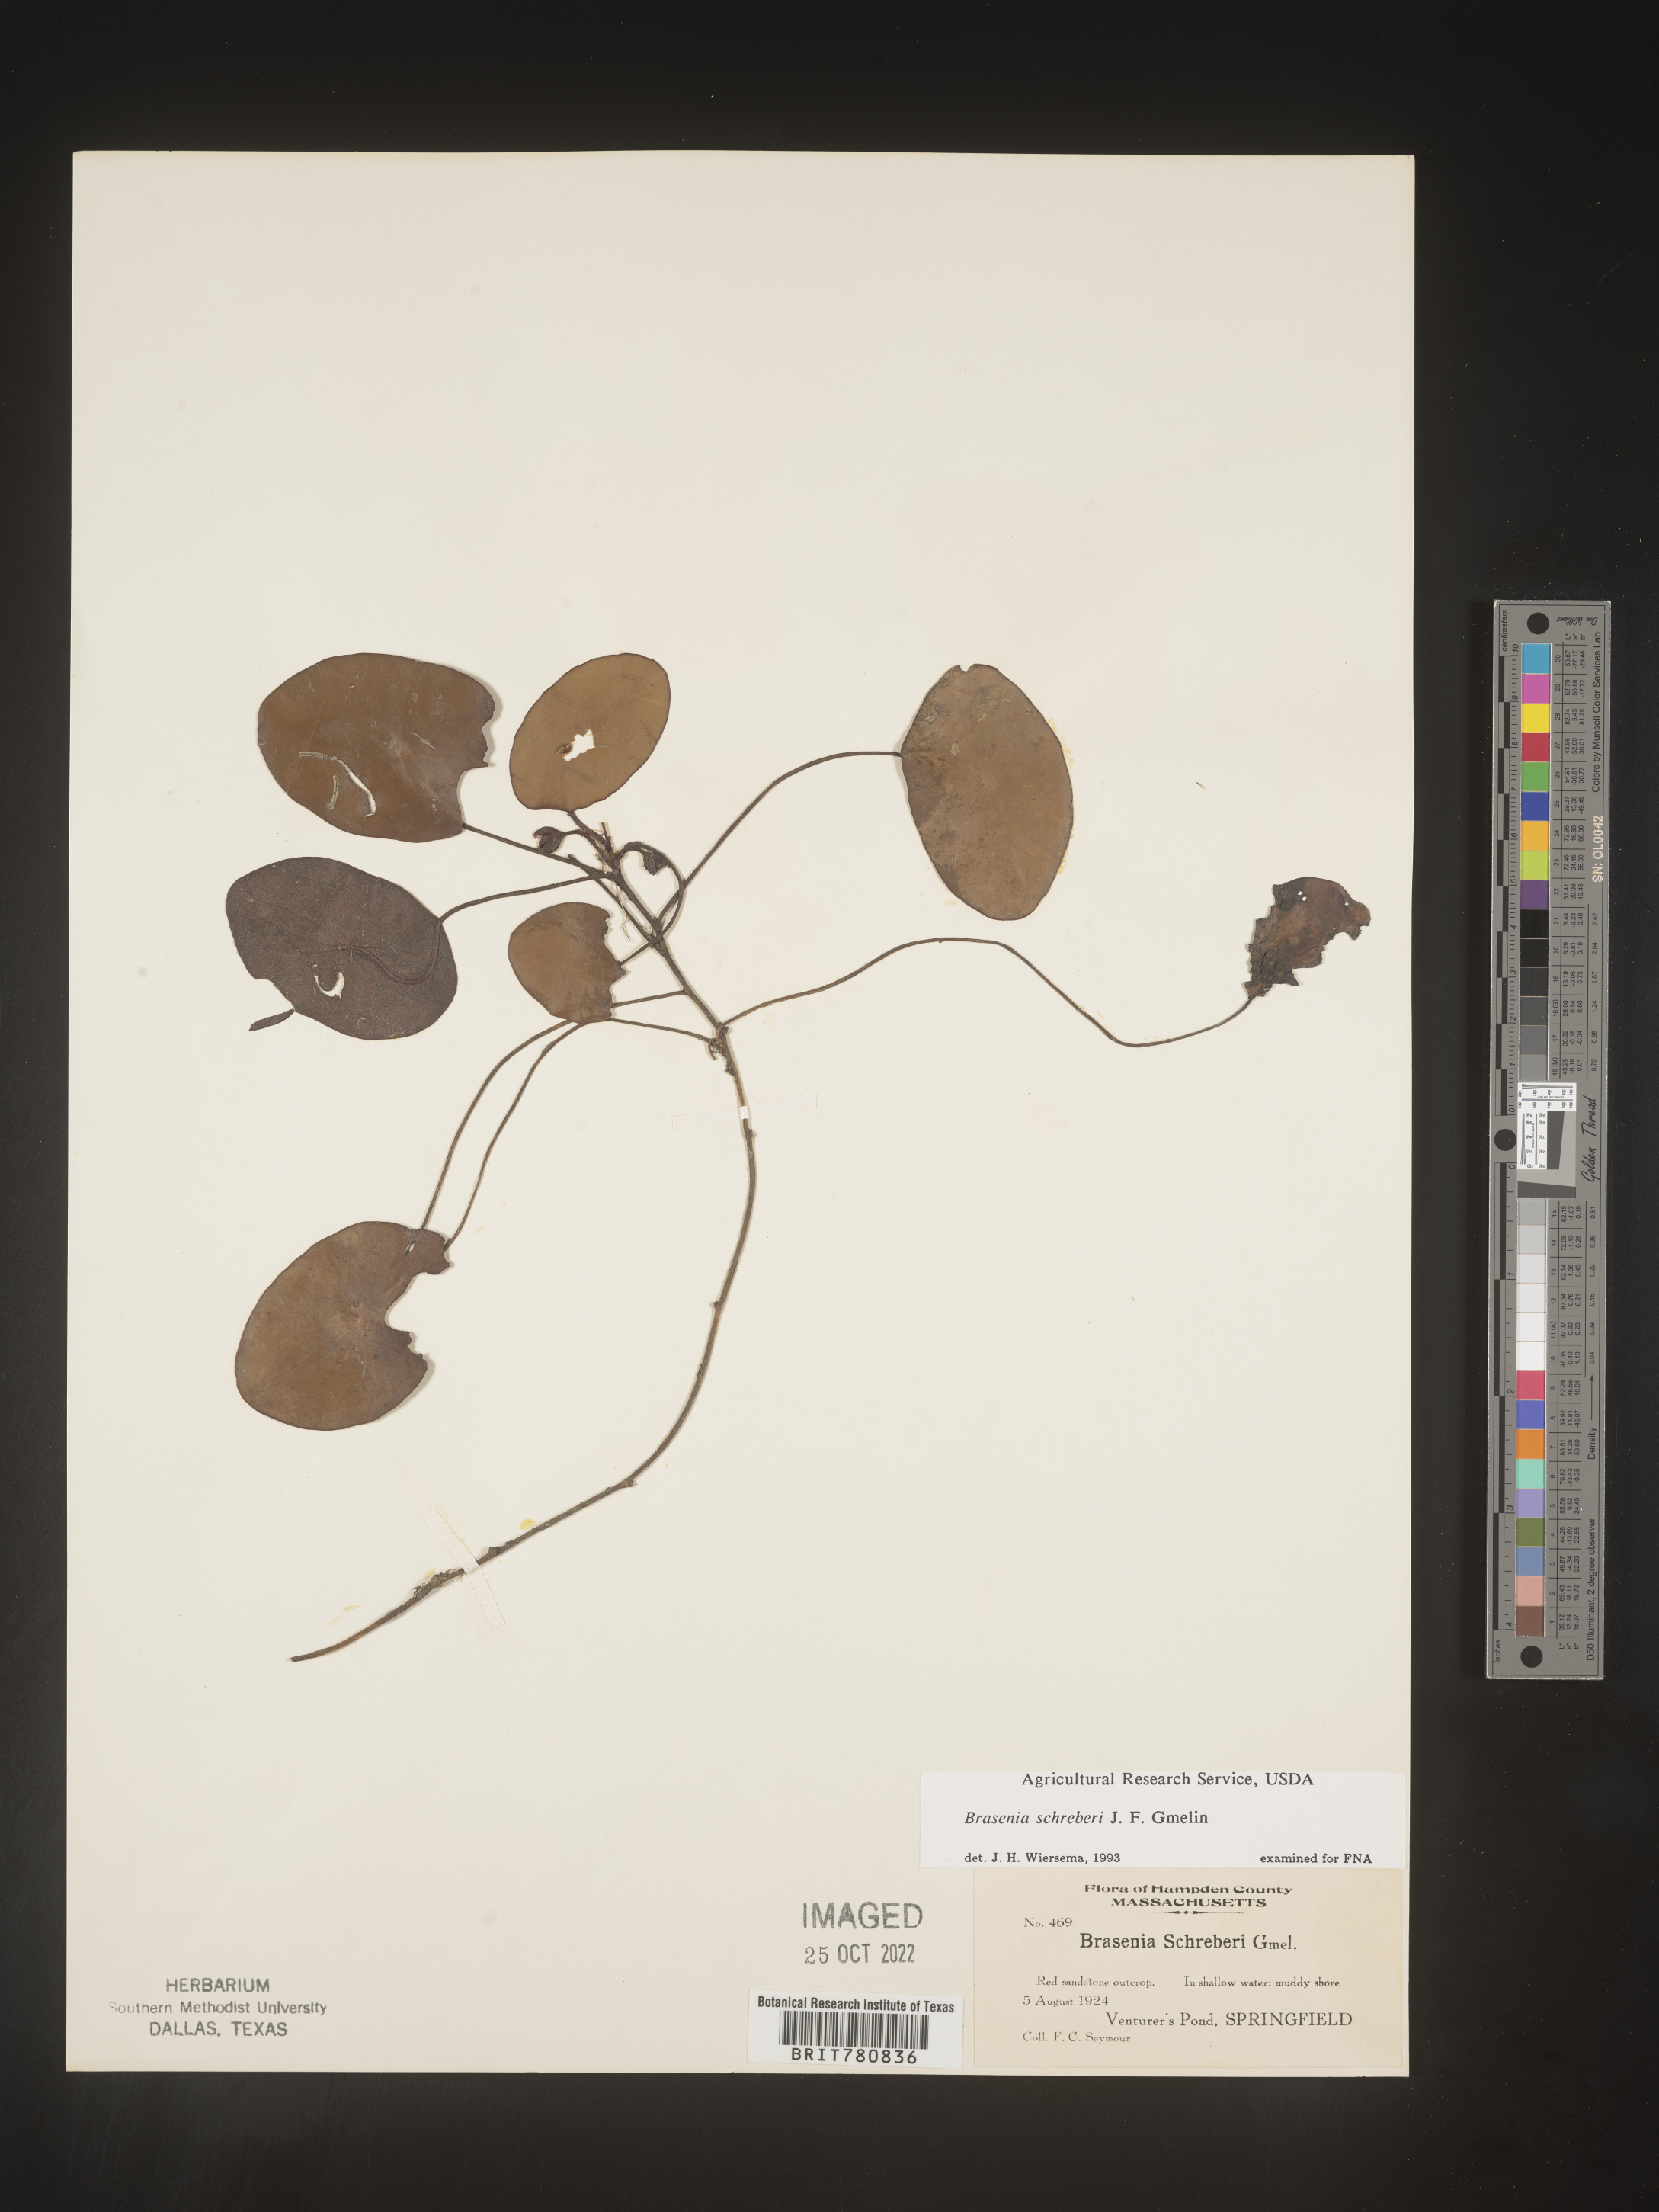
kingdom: Plantae
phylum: Tracheophyta
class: Magnoliopsida
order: Nymphaeales
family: Cabombaceae
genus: Brasenia
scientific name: Brasenia schreberi
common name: Water-shield
